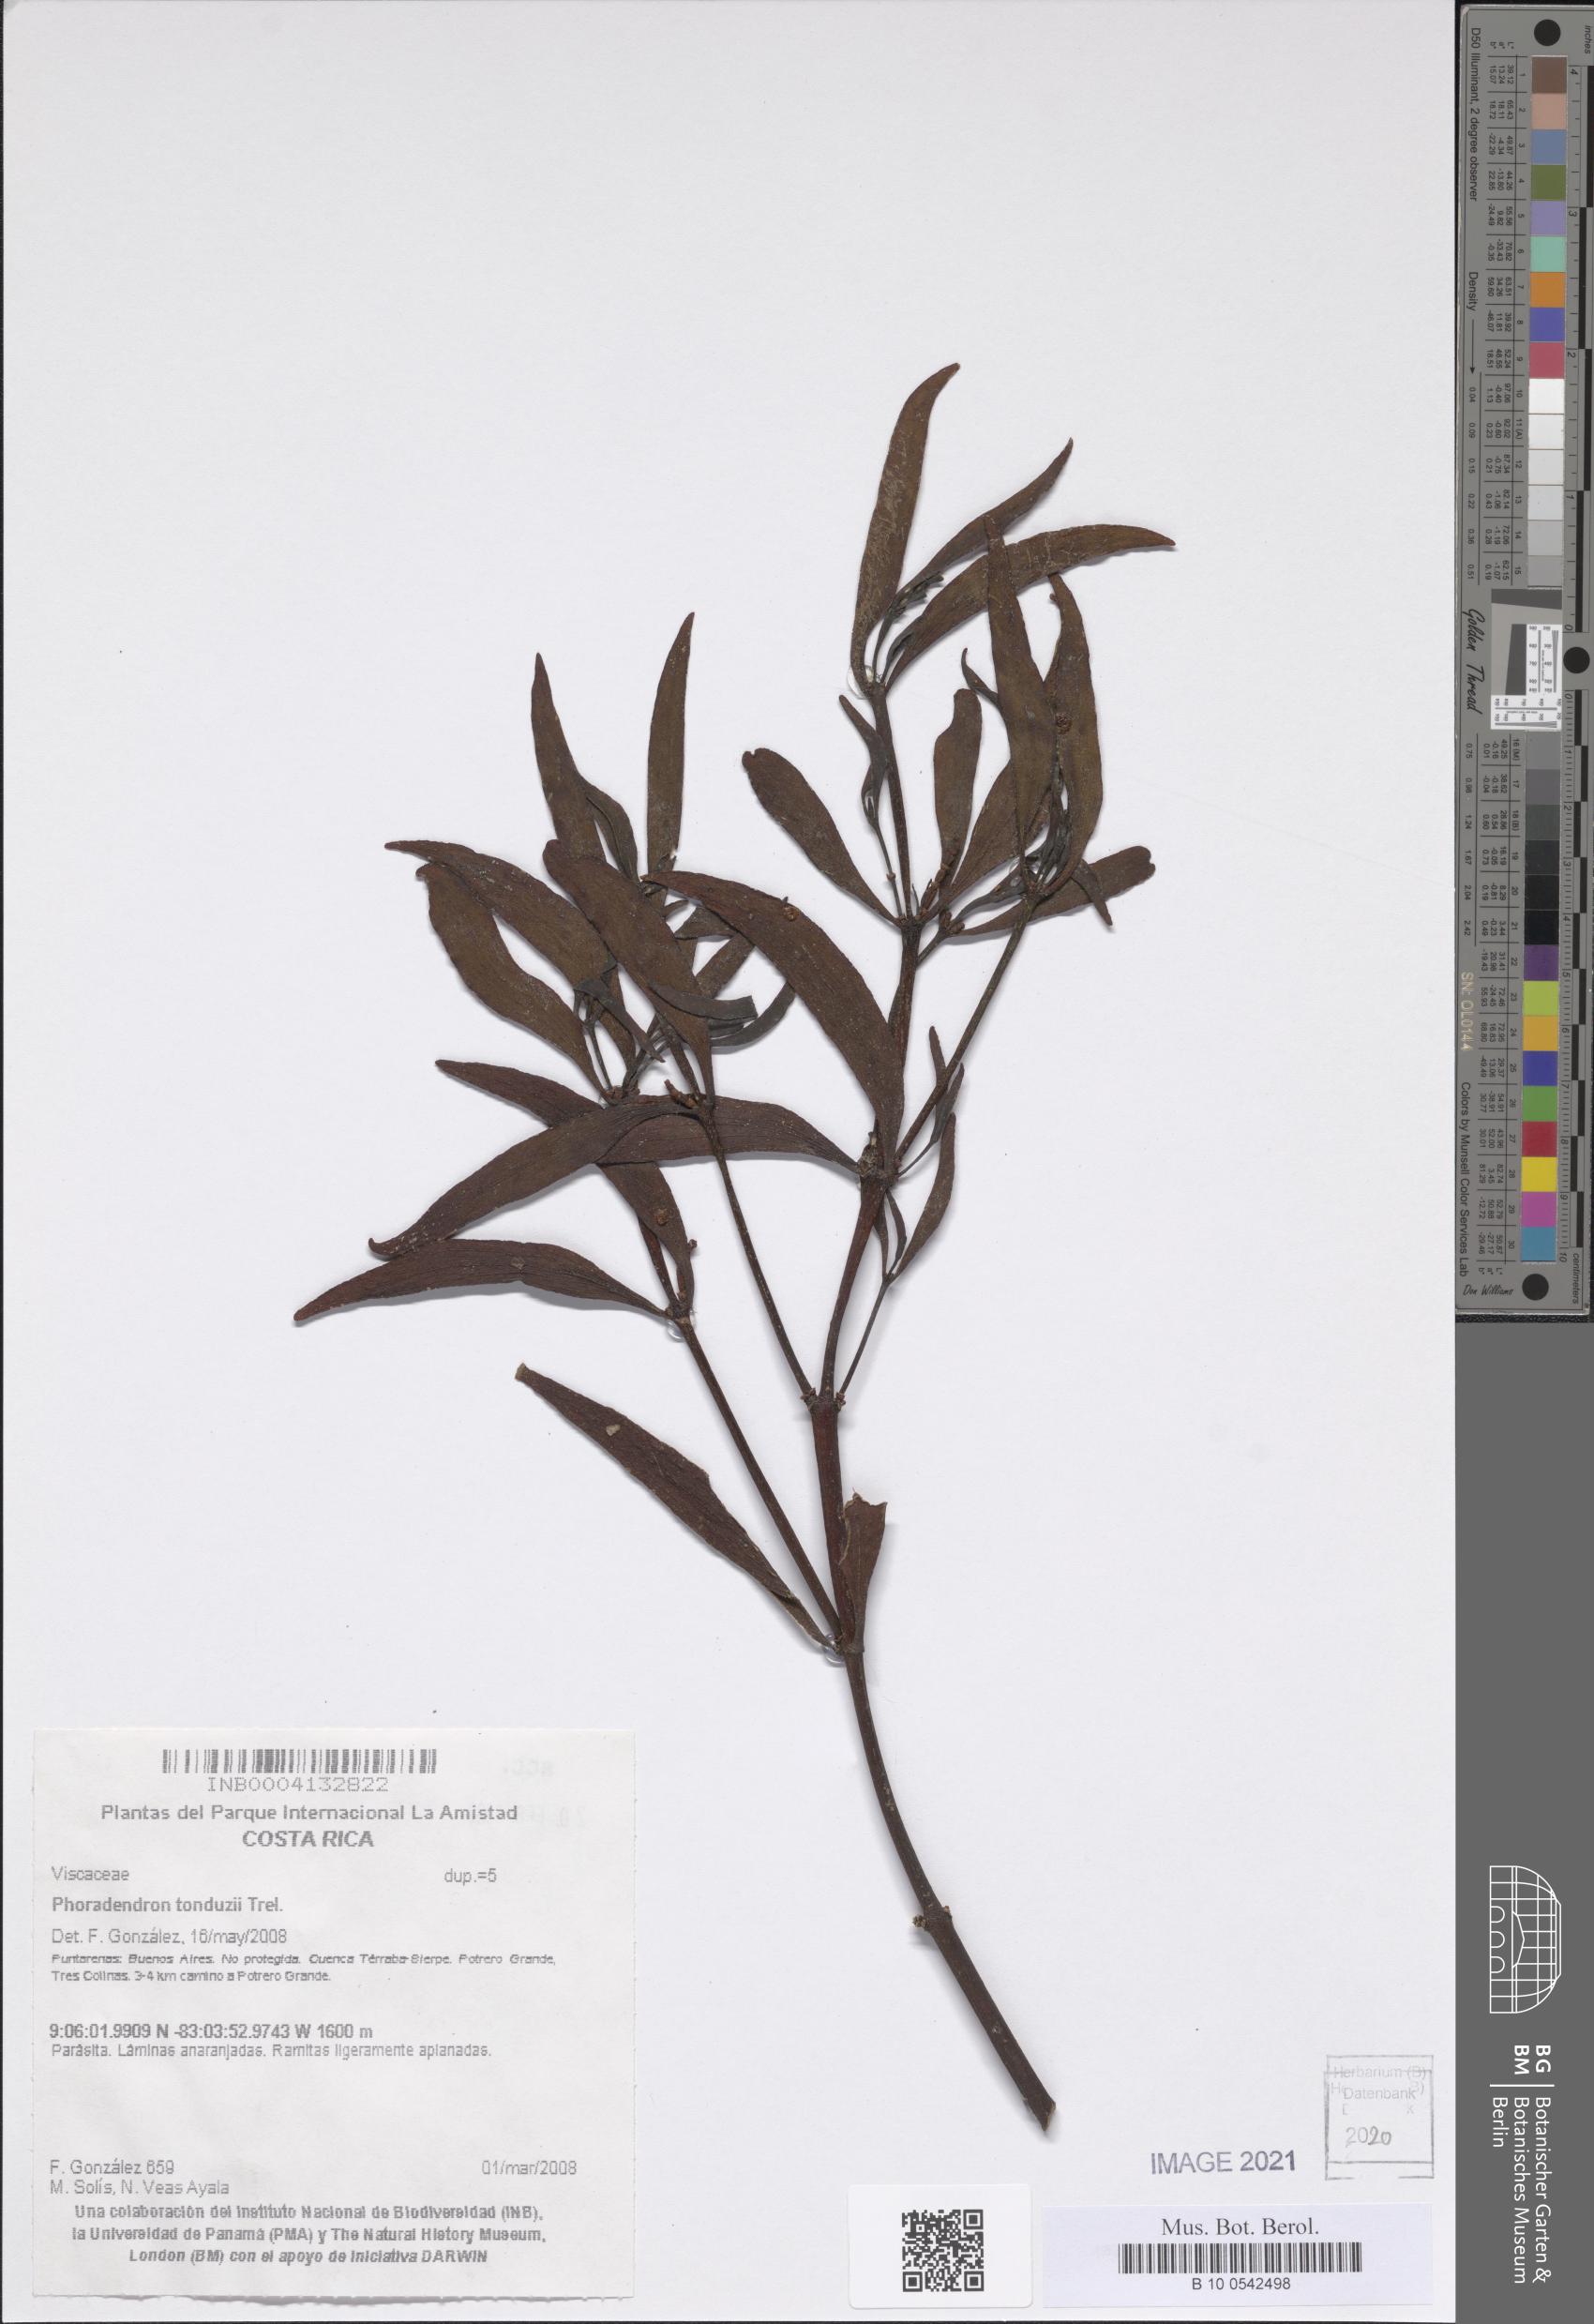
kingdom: Plantae
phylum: Tracheophyta
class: Magnoliopsida
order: Santalales
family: Viscaceae
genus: Phoradendron
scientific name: Phoradendron tonduzii
